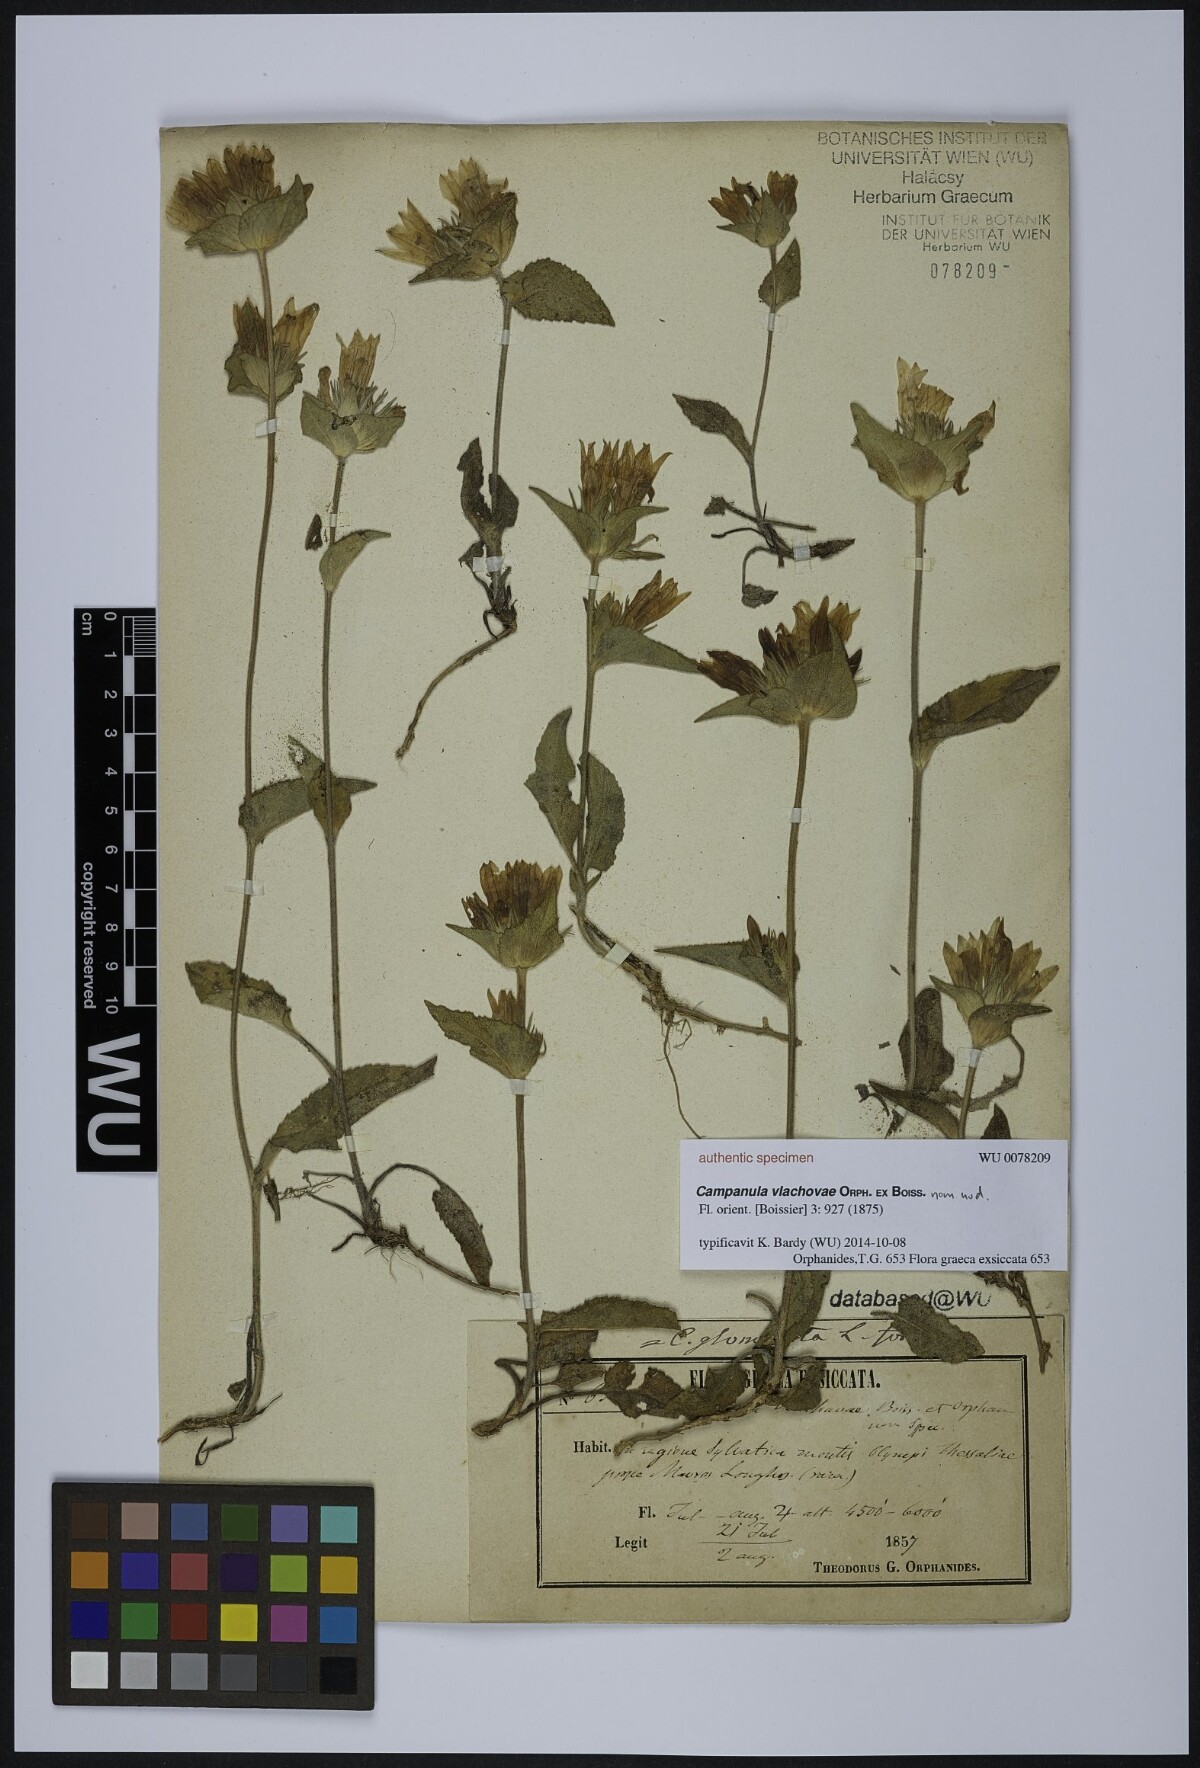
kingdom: Plantae
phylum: Tracheophyta
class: Magnoliopsida
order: Asterales
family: Campanulaceae
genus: Campanula
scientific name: Campanula glomerata
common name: Clustered bellflower
